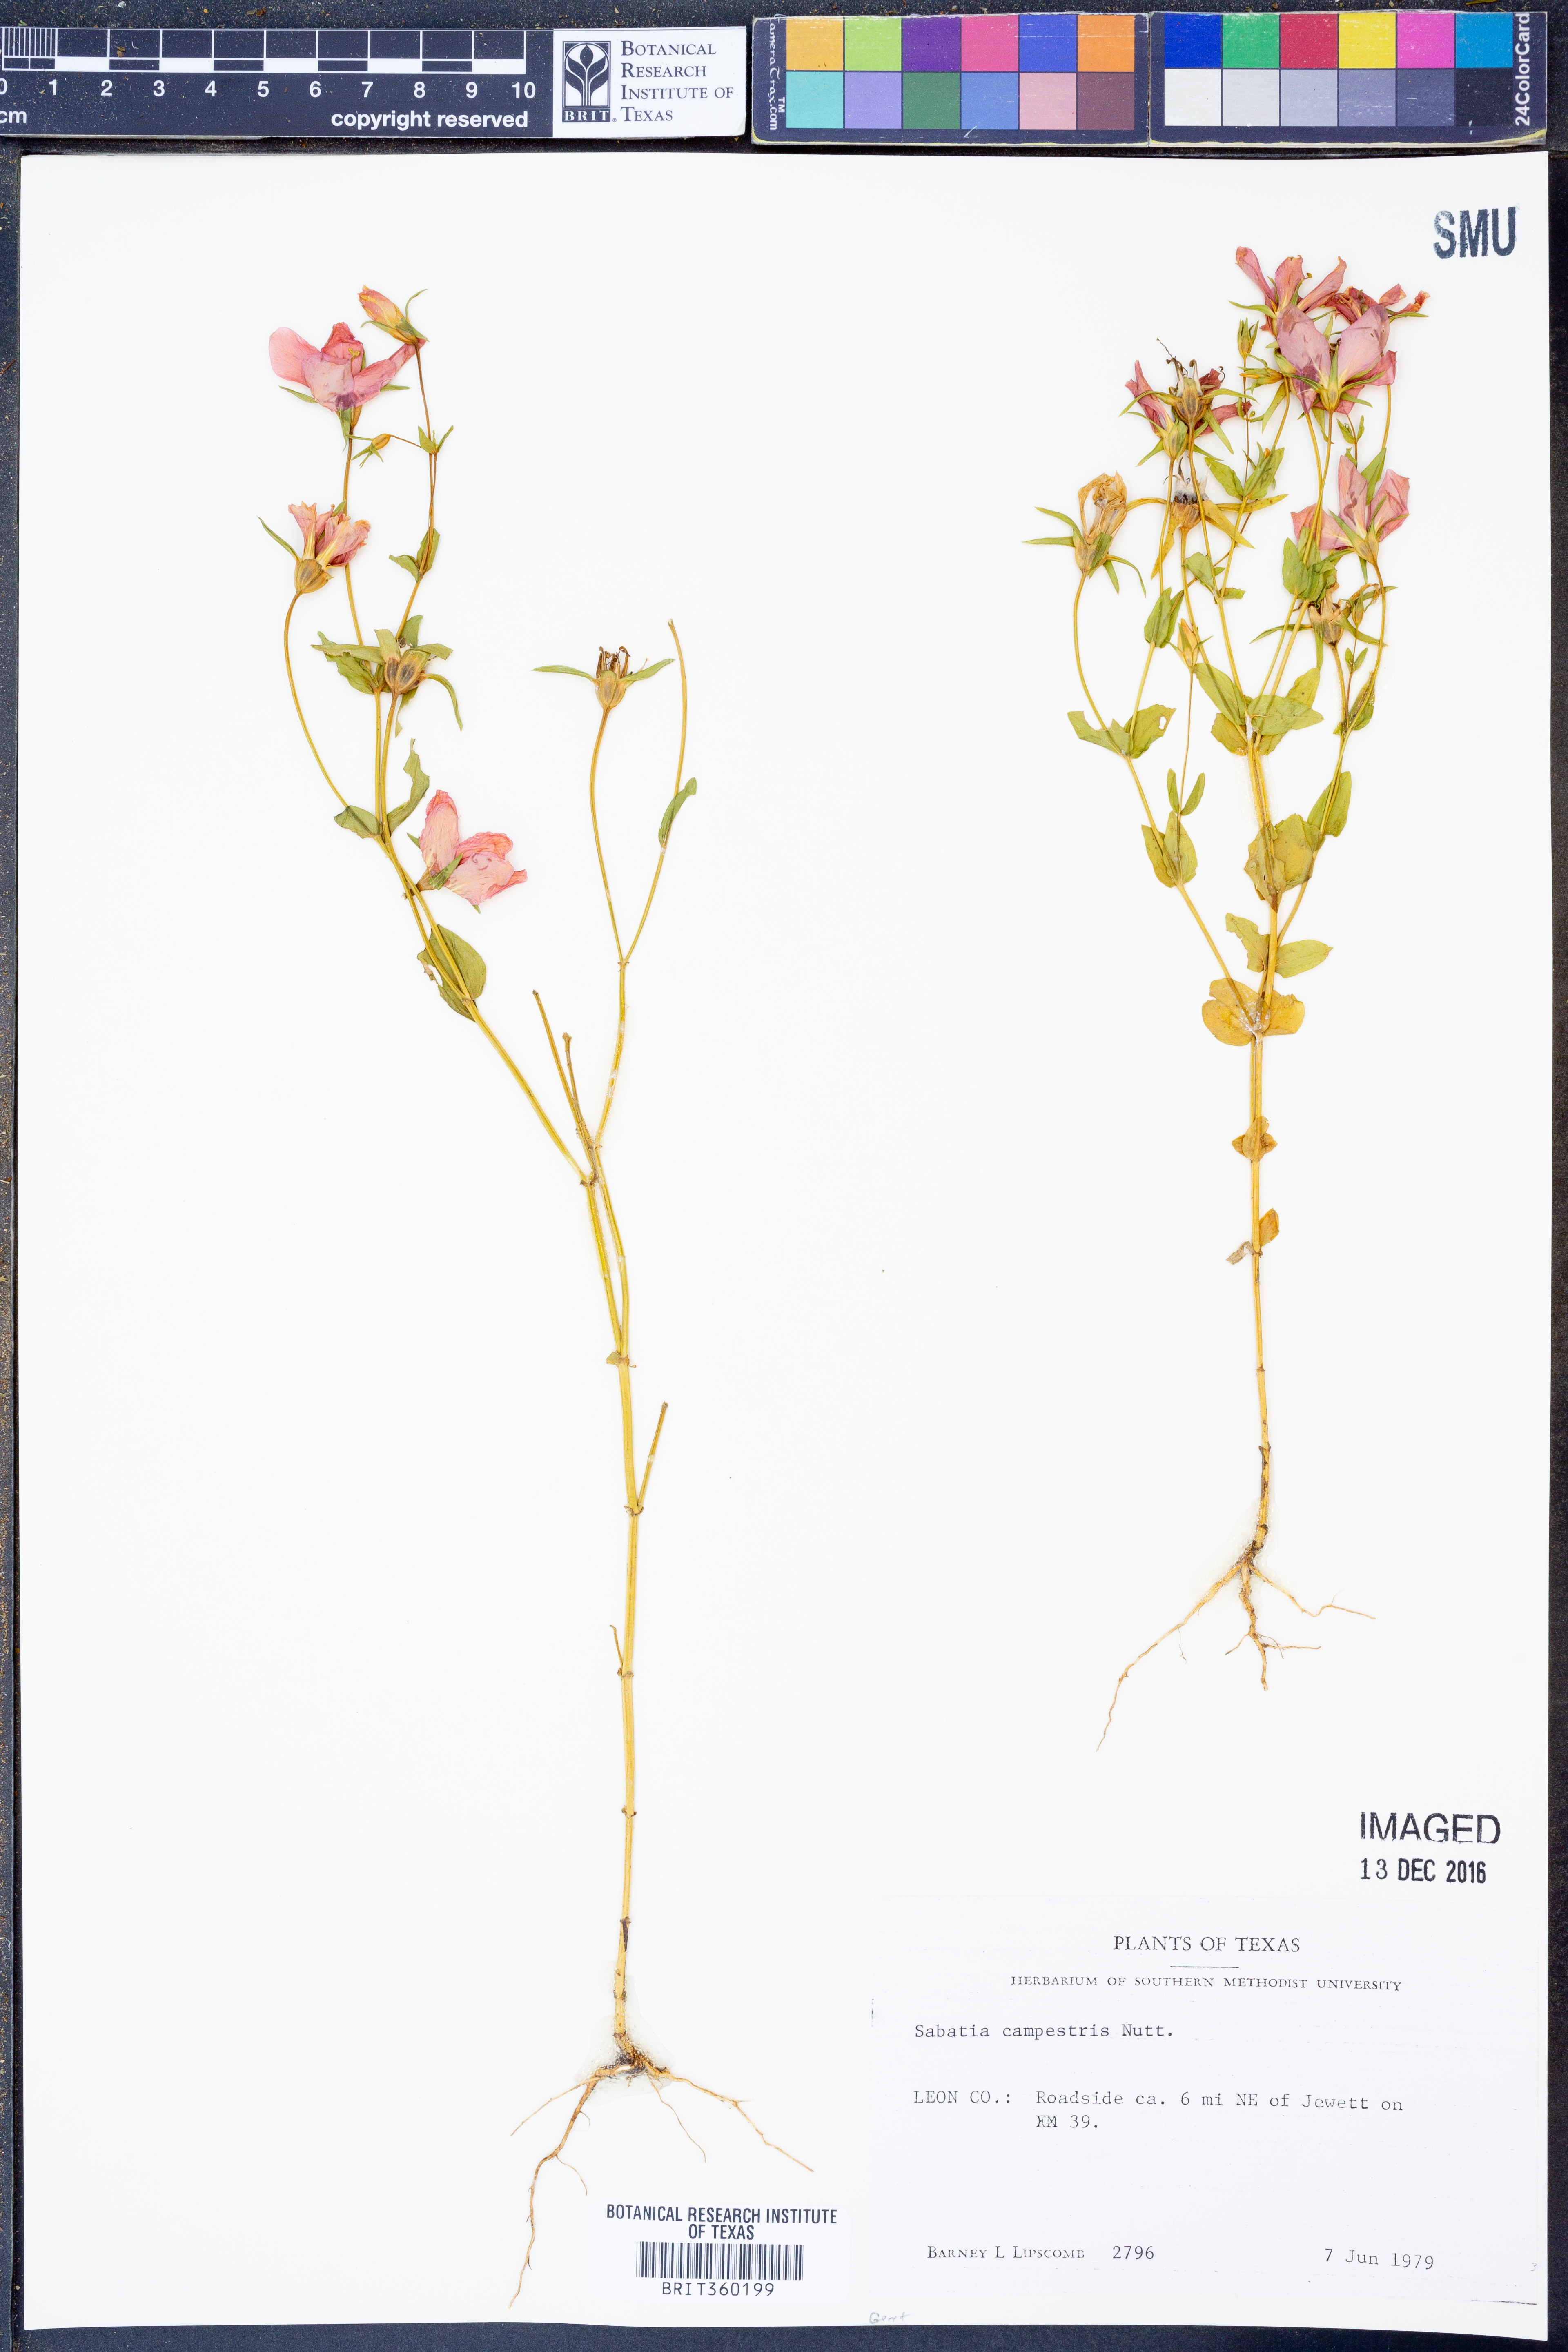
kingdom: Plantae
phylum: Tracheophyta
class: Magnoliopsida
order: Gentianales
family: Gentianaceae
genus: Sabatia
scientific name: Sabatia campestris
